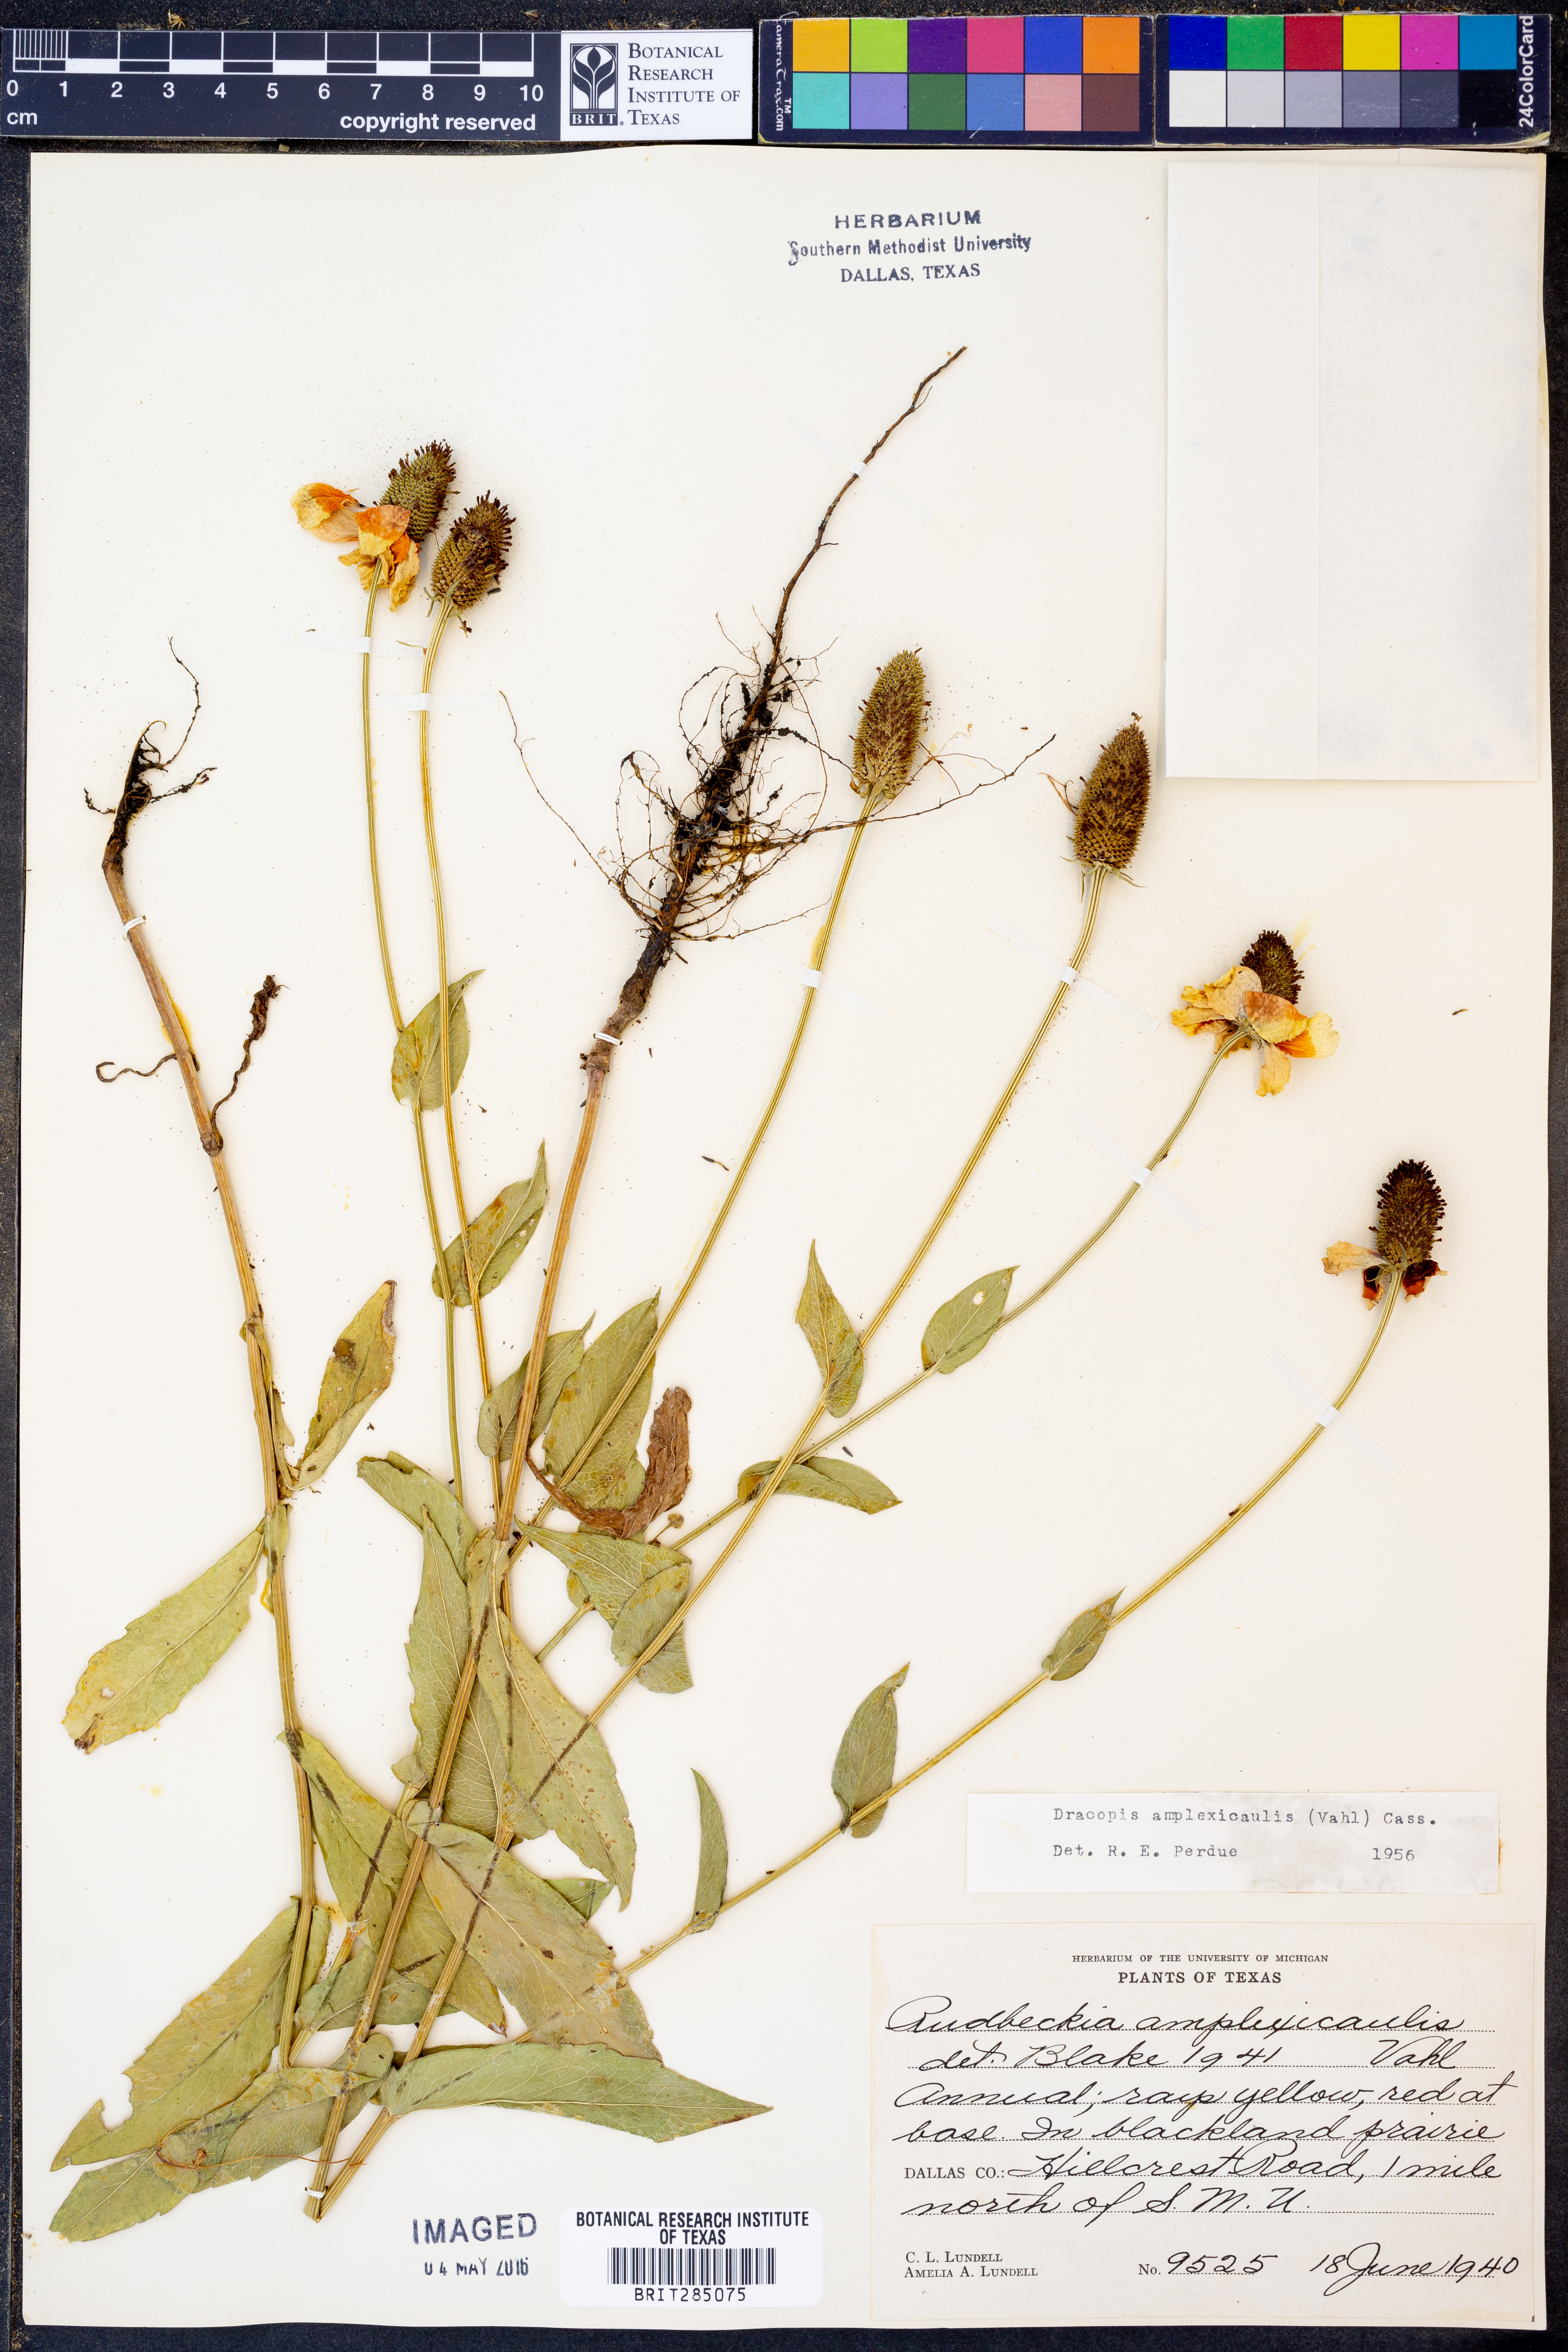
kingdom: Plantae
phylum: Tracheophyta
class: Magnoliopsida
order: Asterales
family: Asteraceae
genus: Rudbeckia
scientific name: Rudbeckia amplexicaulis
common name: Clasping-leaf coneflower
